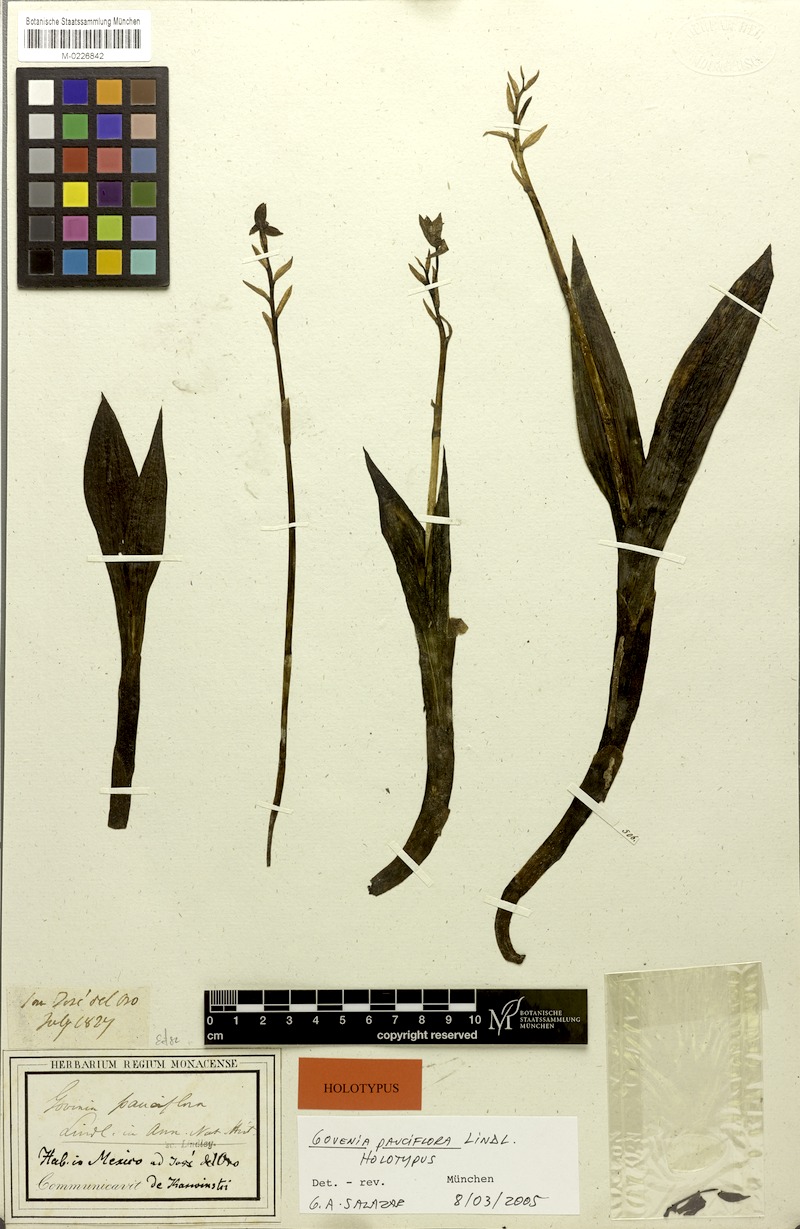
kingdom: Plantae
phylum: Tracheophyta
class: Liliopsida
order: Asparagales
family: Orchidaceae
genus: Govenia
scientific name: Govenia purpusii
